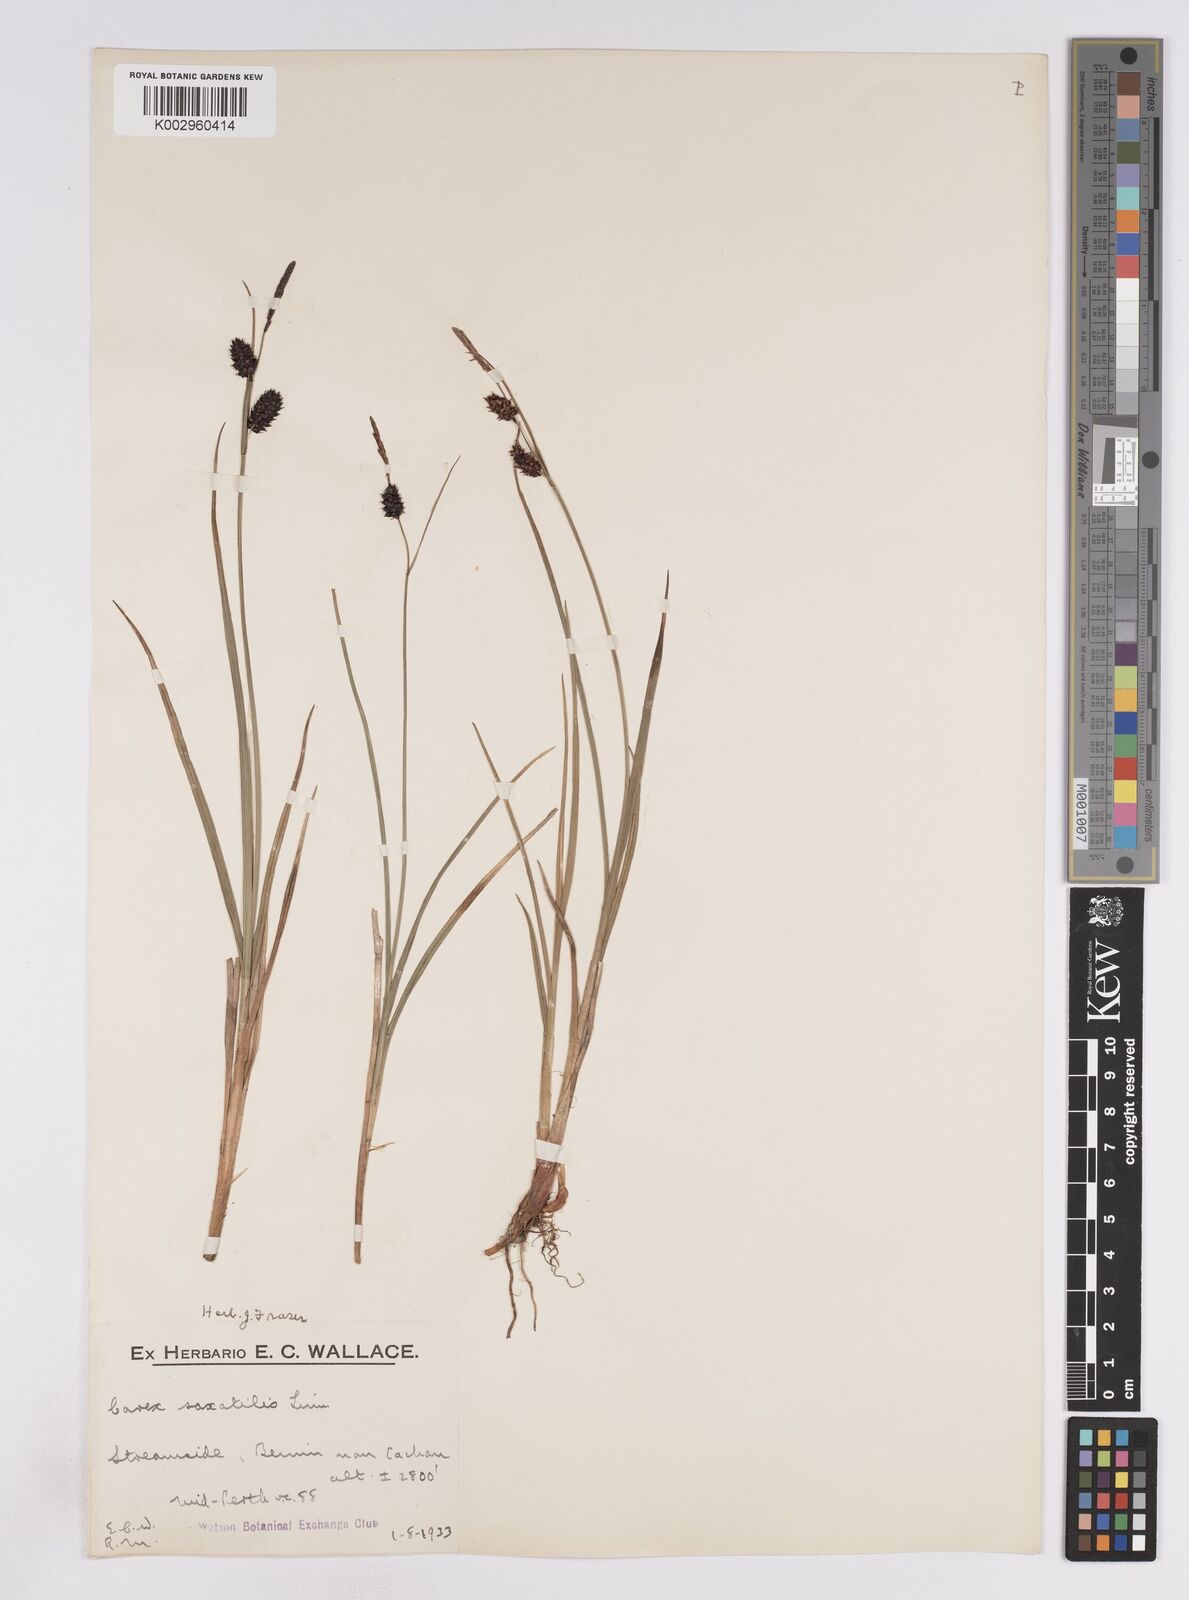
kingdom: Plantae
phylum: Tracheophyta
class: Liliopsida
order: Poales
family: Cyperaceae
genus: Carex
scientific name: Carex saxatilis
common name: Russet sedge
